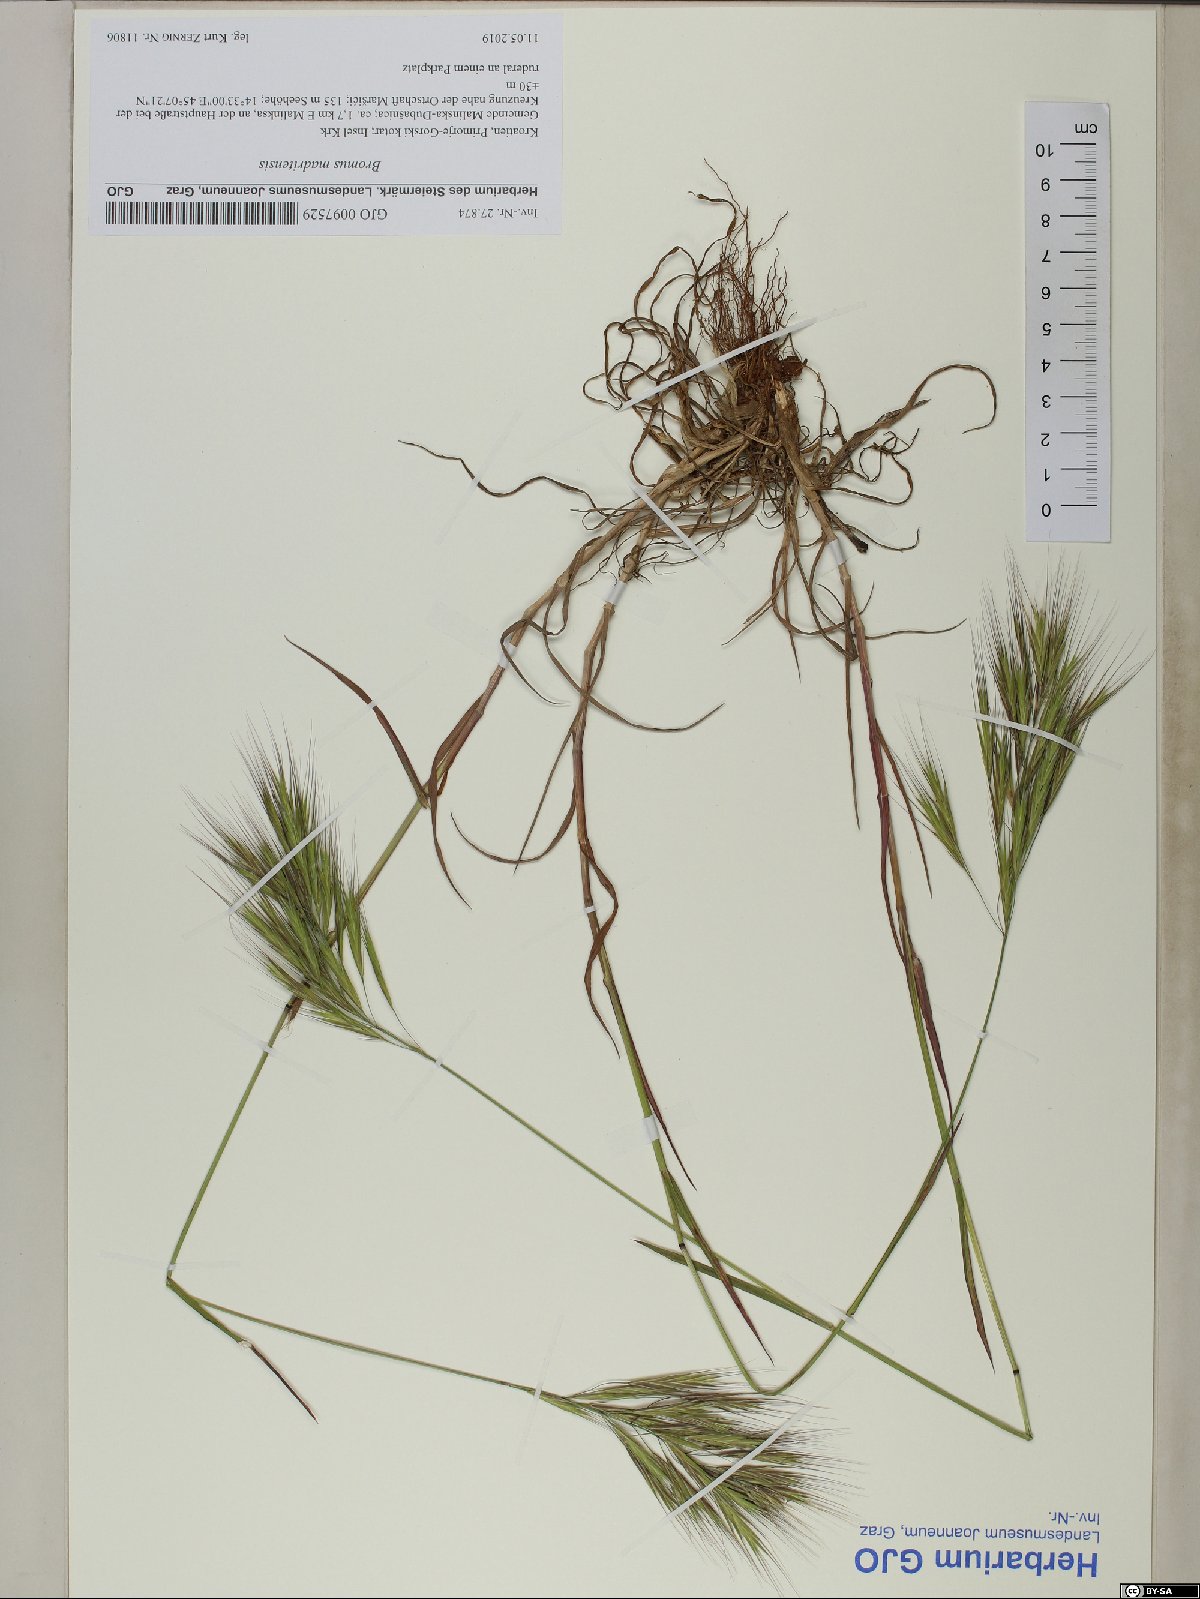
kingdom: Plantae
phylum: Tracheophyta
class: Liliopsida
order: Poales
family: Poaceae
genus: Bromus
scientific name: Bromus madritensis
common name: Compact brome
